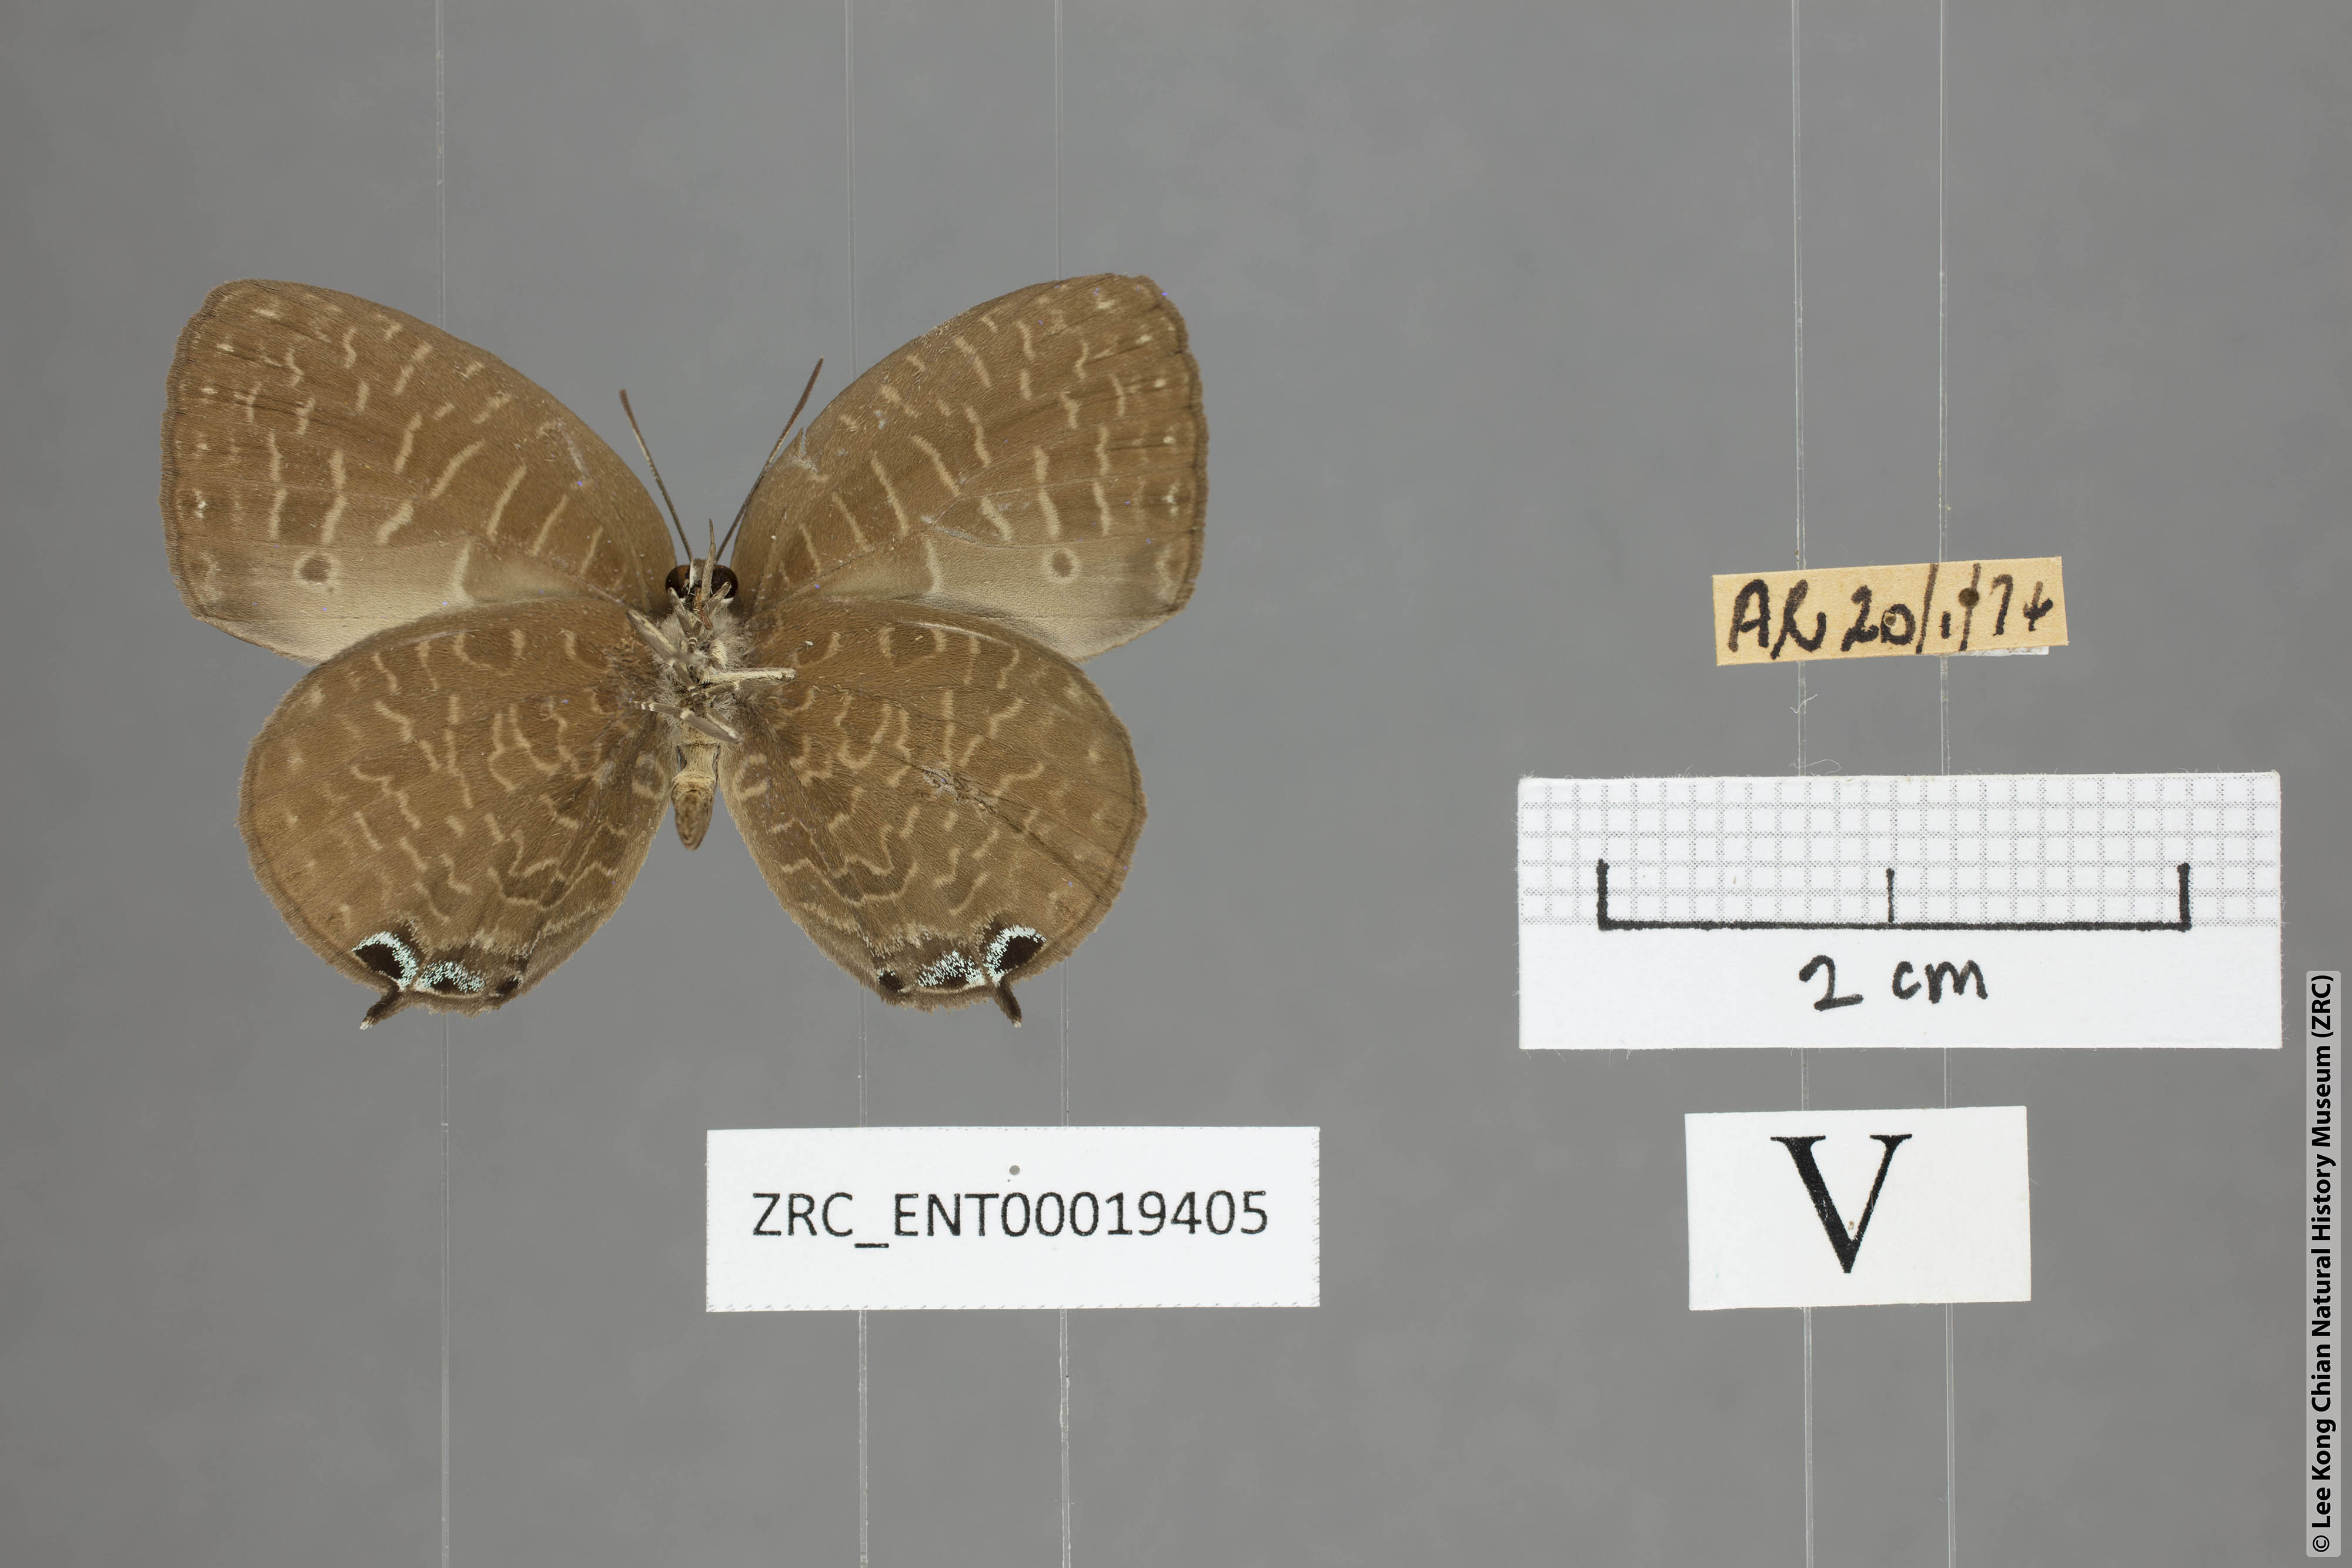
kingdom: Animalia
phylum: Arthropoda
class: Insecta
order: Lepidoptera
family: Lycaenidae
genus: Arhopala
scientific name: Arhopala democritus
